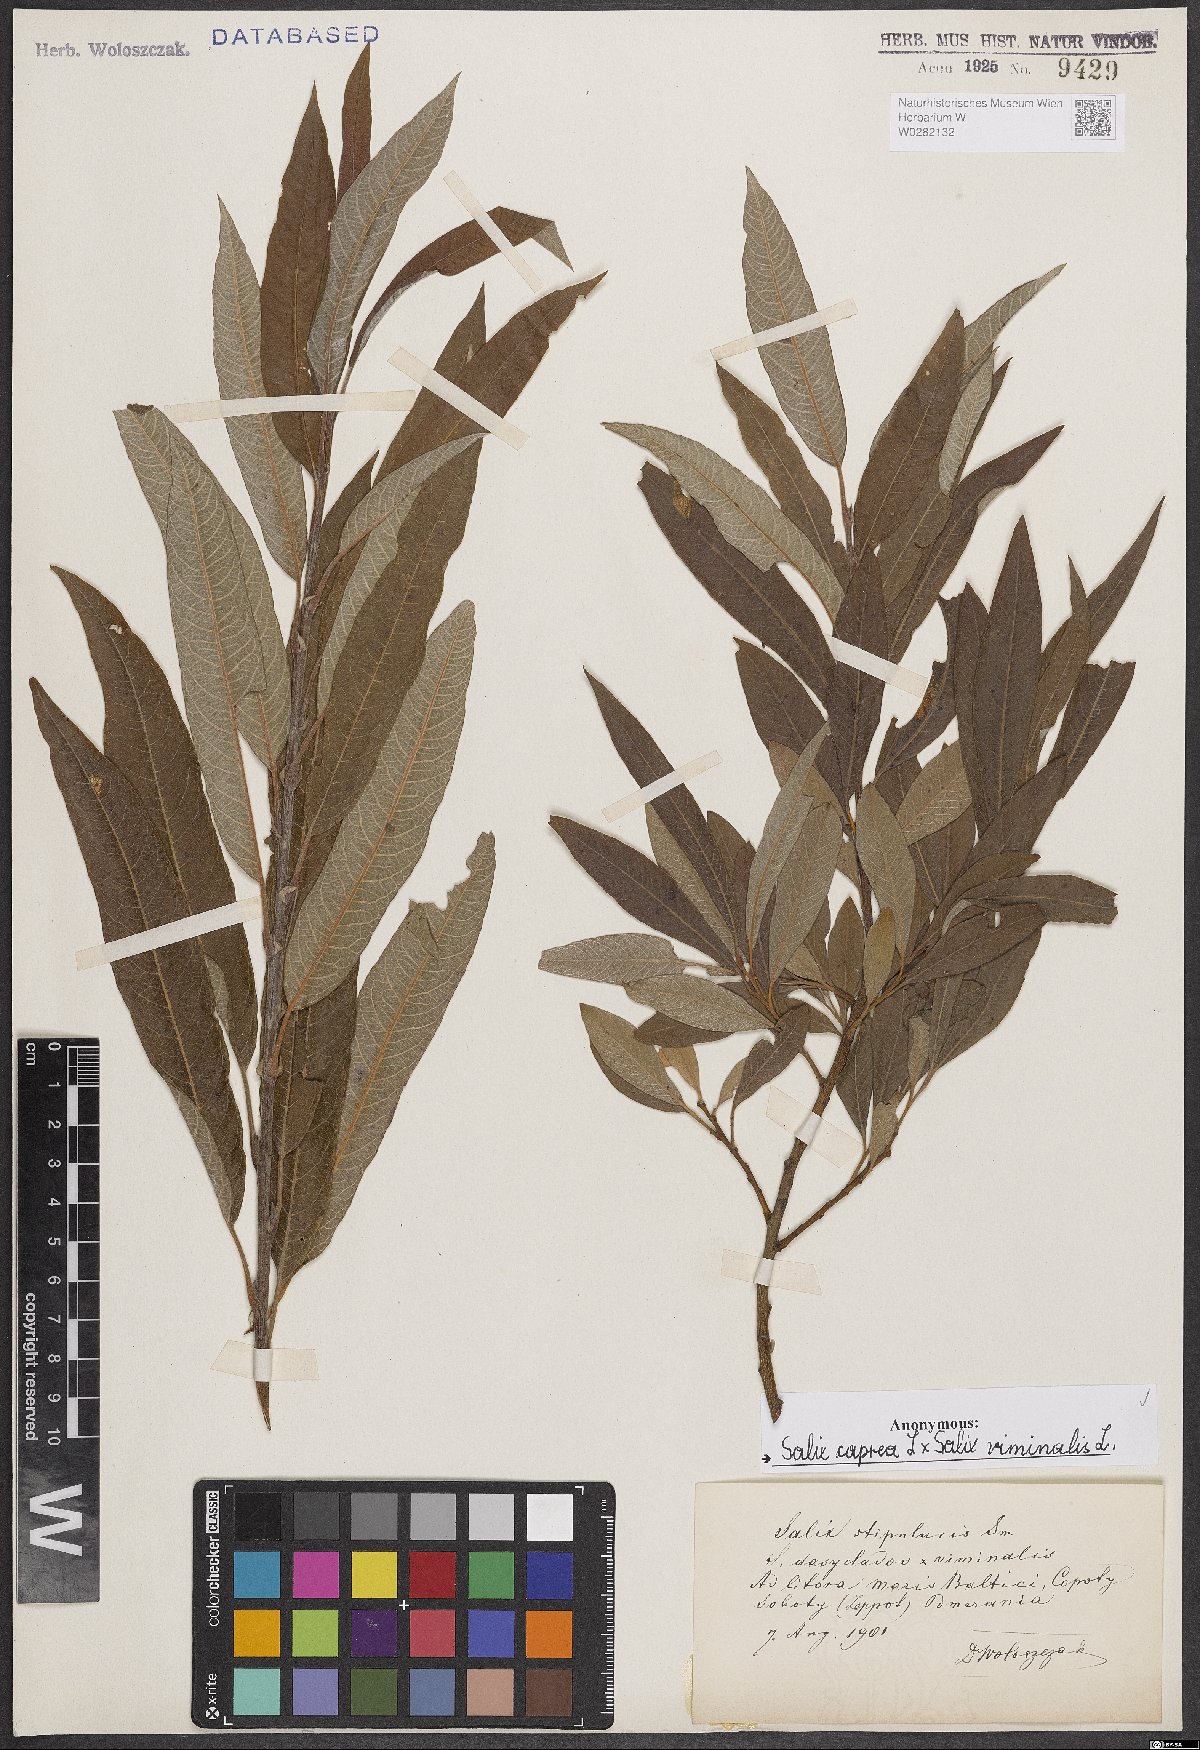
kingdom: Plantae
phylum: Tracheophyta
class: Magnoliopsida
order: Malpighiales
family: Salicaceae
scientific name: Salicaceae
